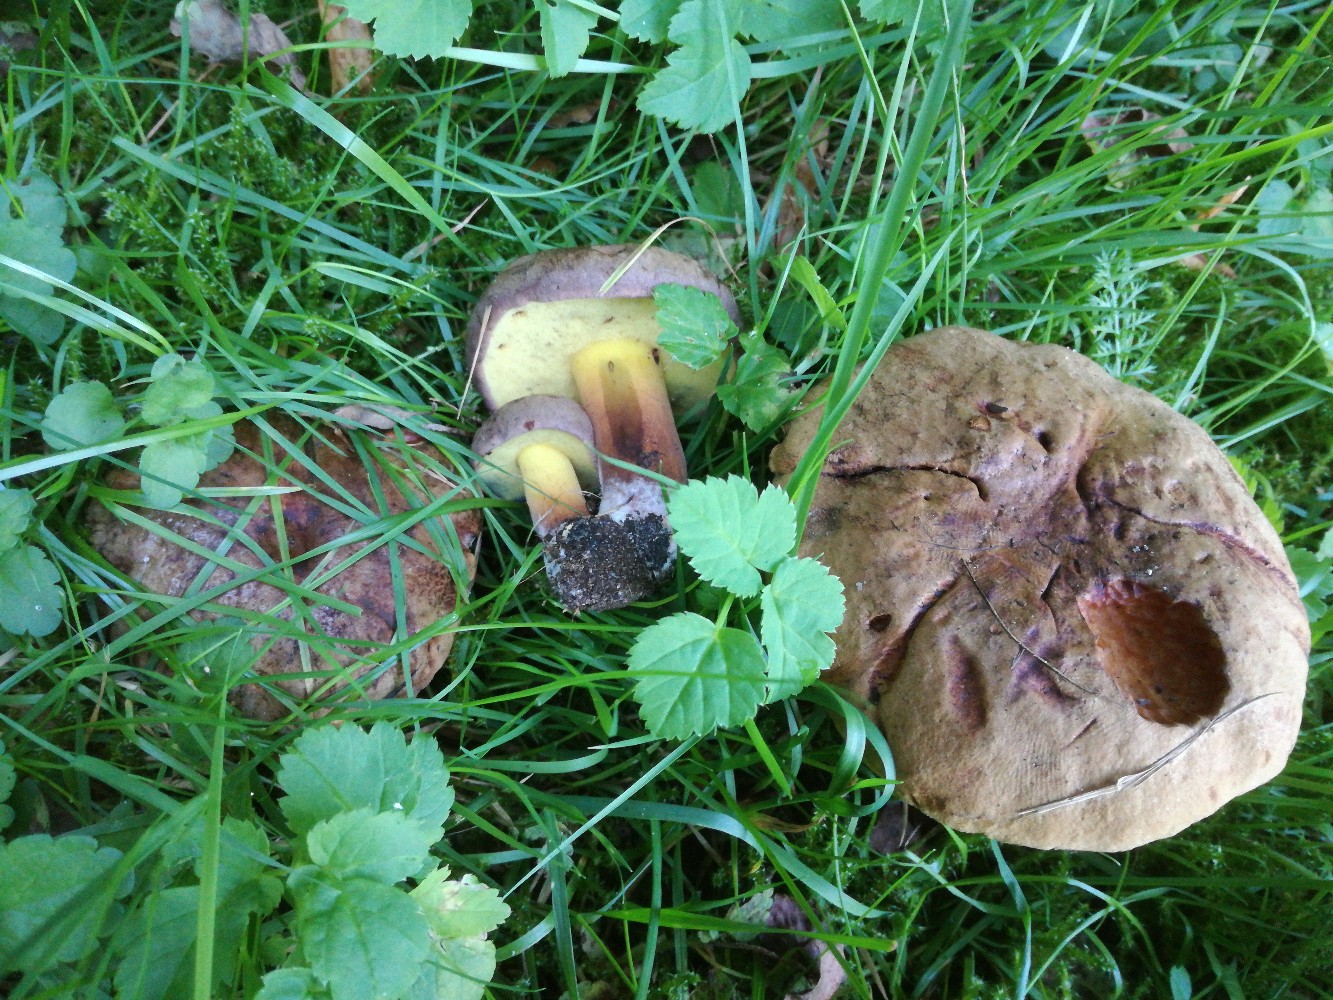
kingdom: Fungi
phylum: Basidiomycota
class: Agaricomycetes
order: Boletales
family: Boletaceae
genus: Cyanoboletus
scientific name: Cyanoboletus pulverulentus
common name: sortblånende rørhat
